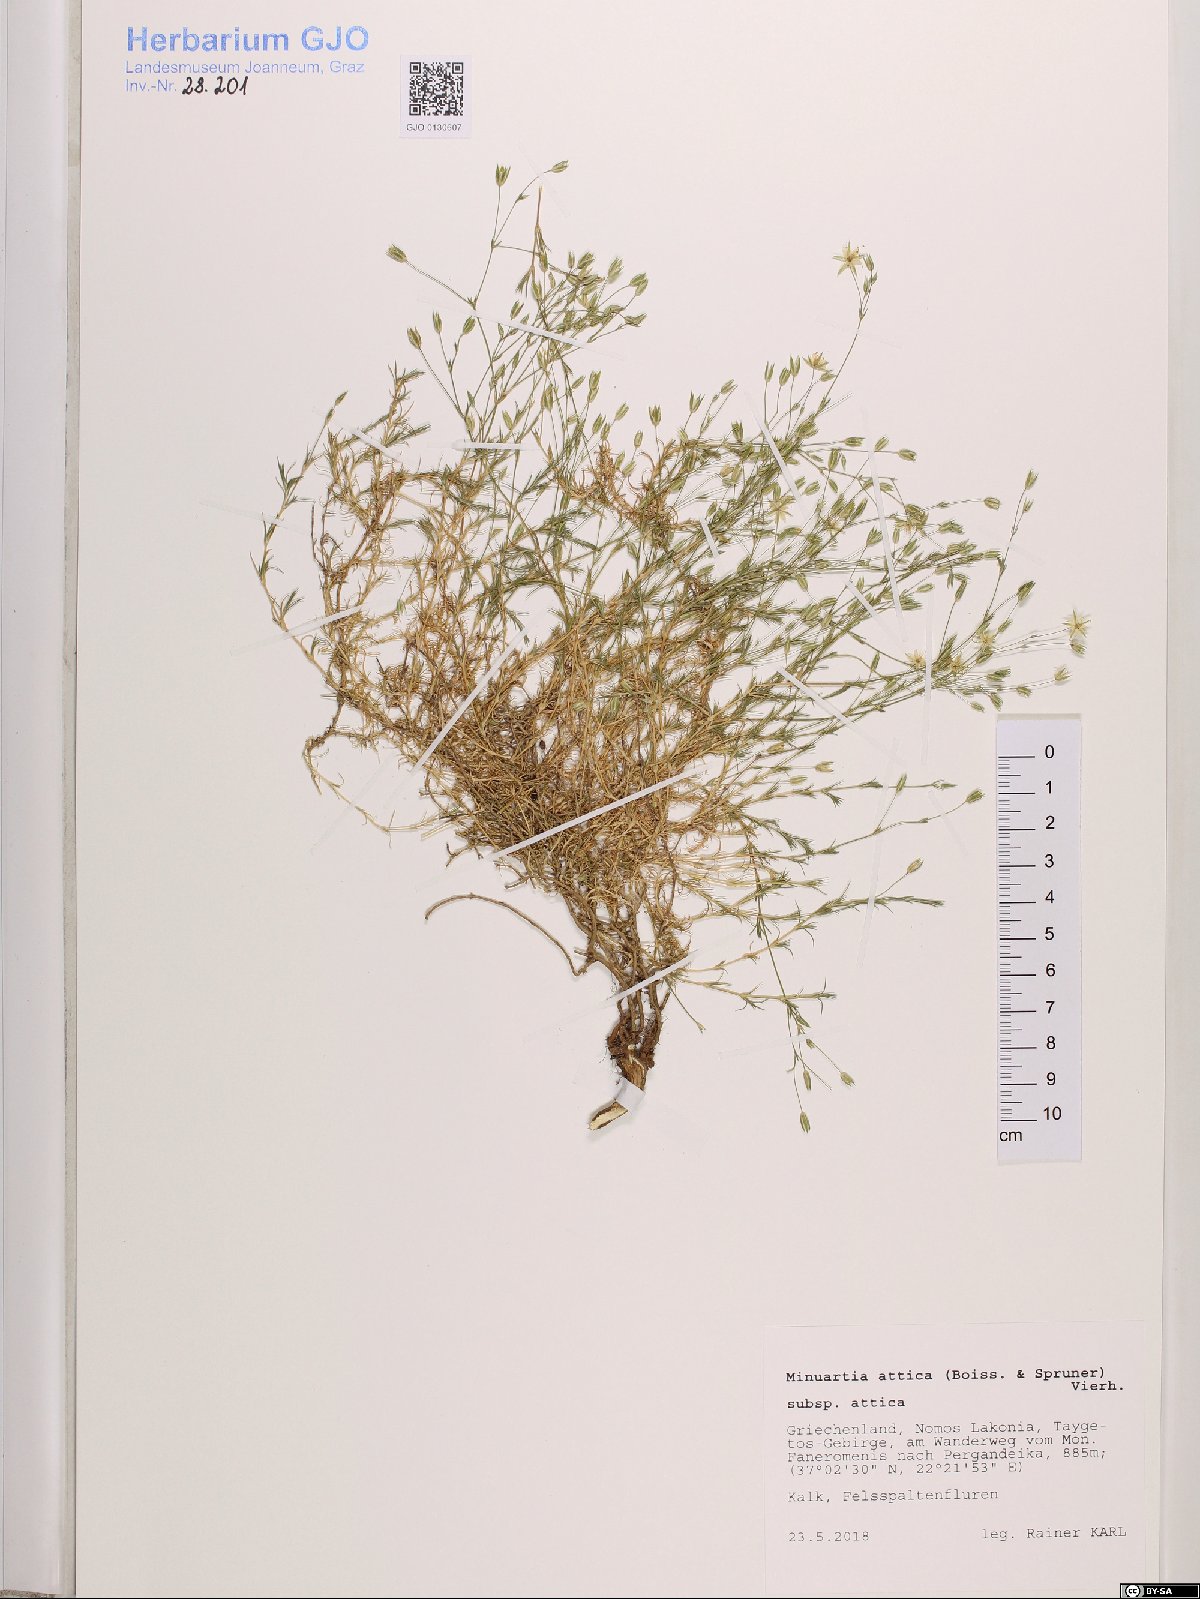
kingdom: Plantae
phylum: Tracheophyta
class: Magnoliopsida
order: Caryophyllales
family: Caryophyllaceae
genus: Sabulina
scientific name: Sabulina attica
